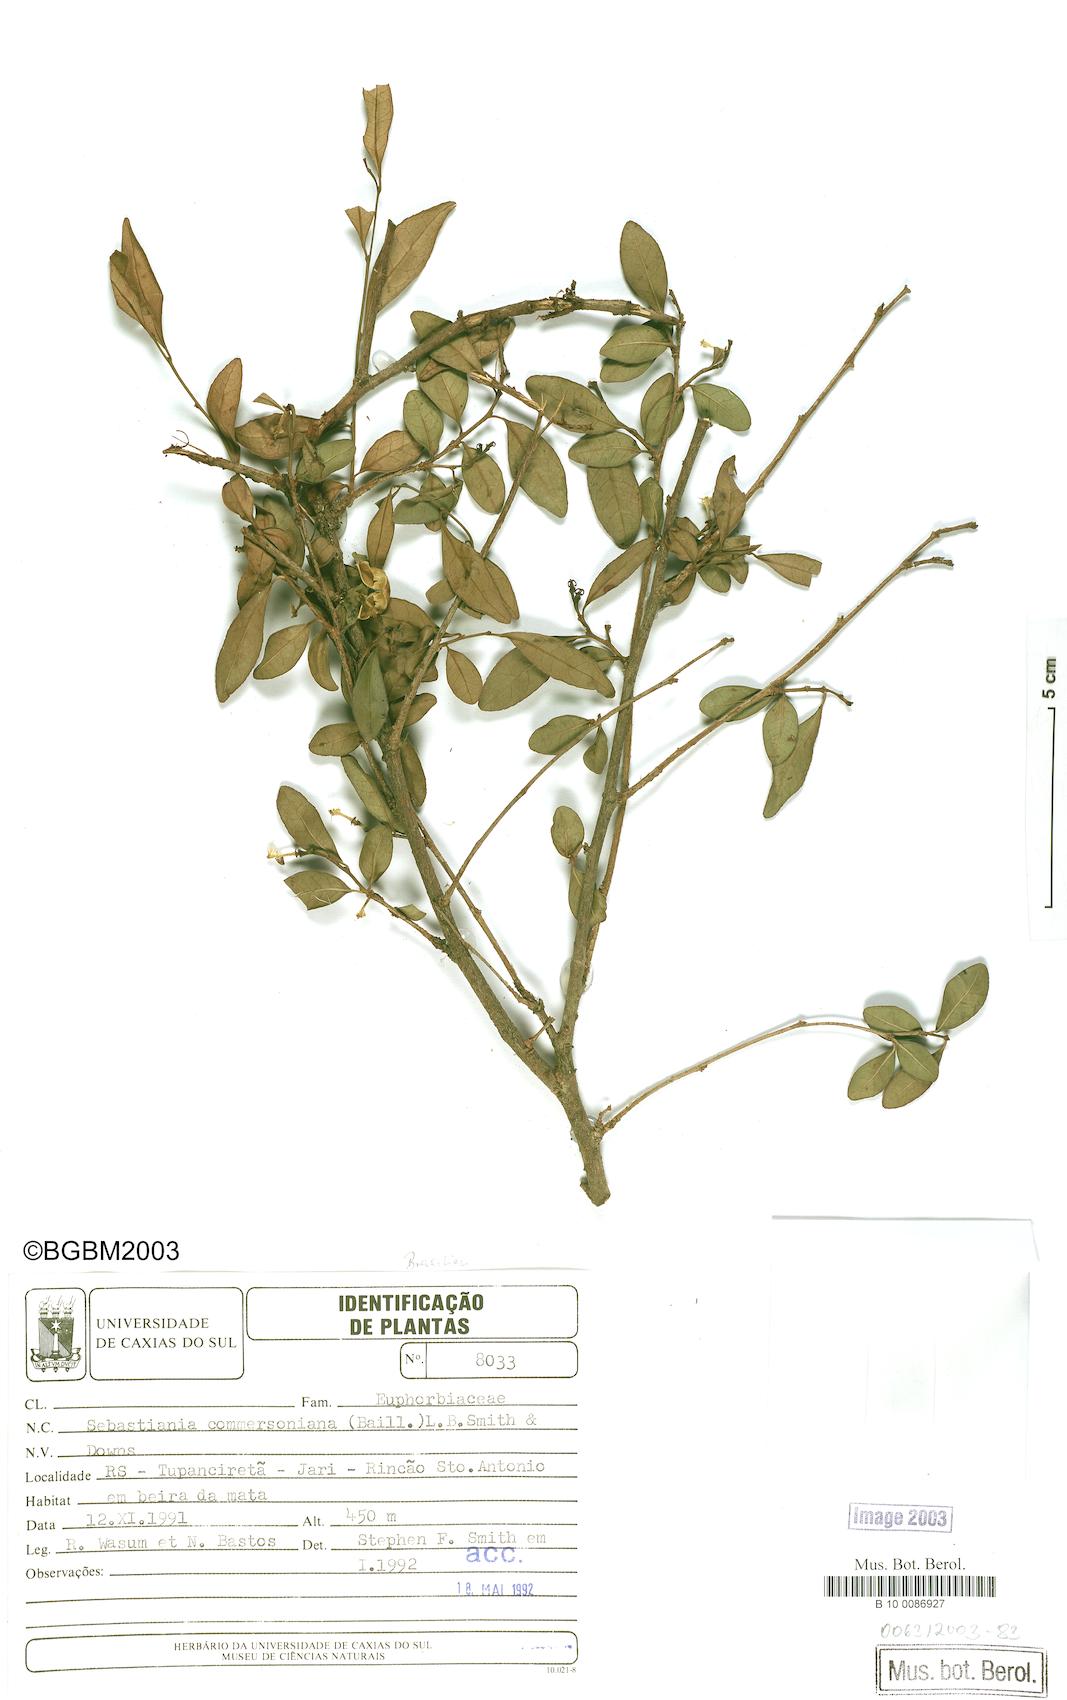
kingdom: Plantae
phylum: Tracheophyta
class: Magnoliopsida
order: Malpighiales
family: Euphorbiaceae
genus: Sebastiania
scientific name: Sebastiania brasiliensis
